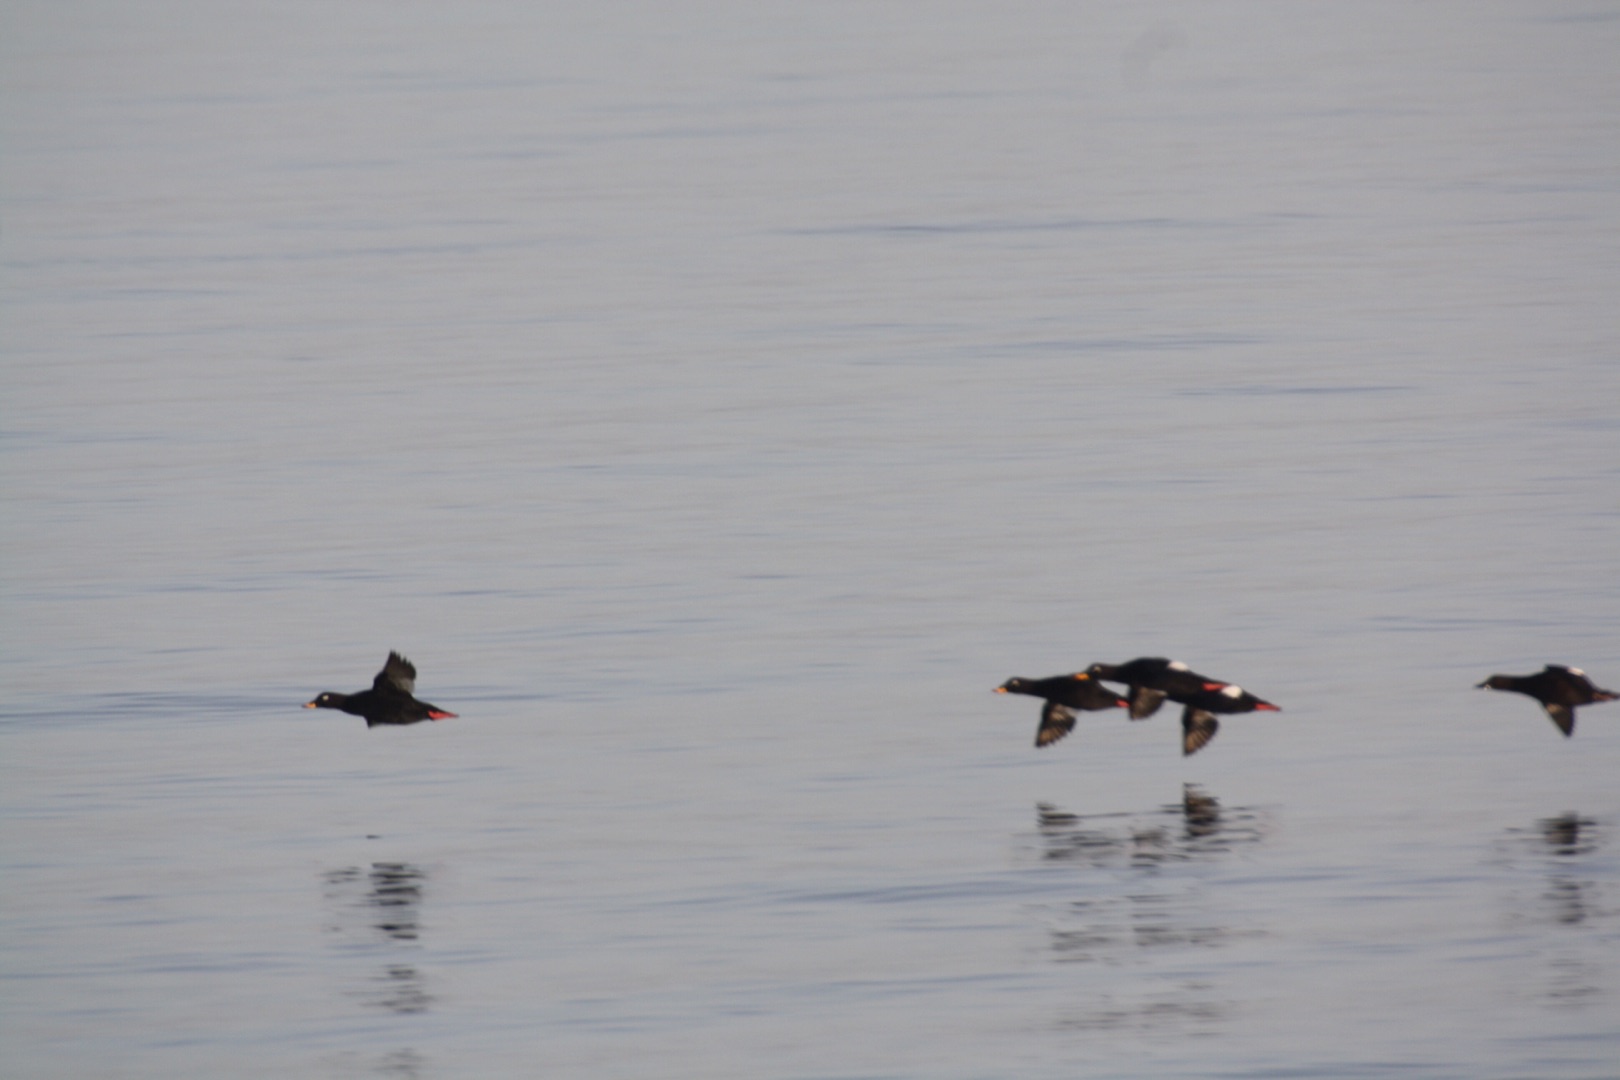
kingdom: Animalia
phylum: Chordata
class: Aves
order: Anseriformes
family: Anatidae
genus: Melanitta
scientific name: Melanitta fusca
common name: Fløjlsand
